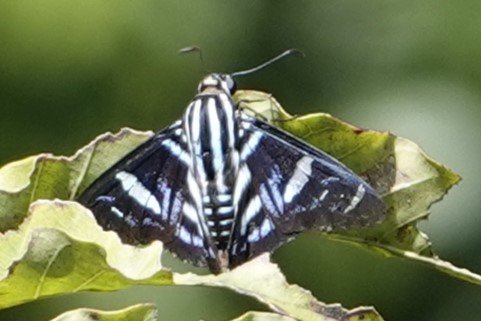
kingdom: Animalia
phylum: Arthropoda
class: Insecta
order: Lepidoptera
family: Hesperiidae
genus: Jemadia
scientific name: Jemadia pseudognetus
